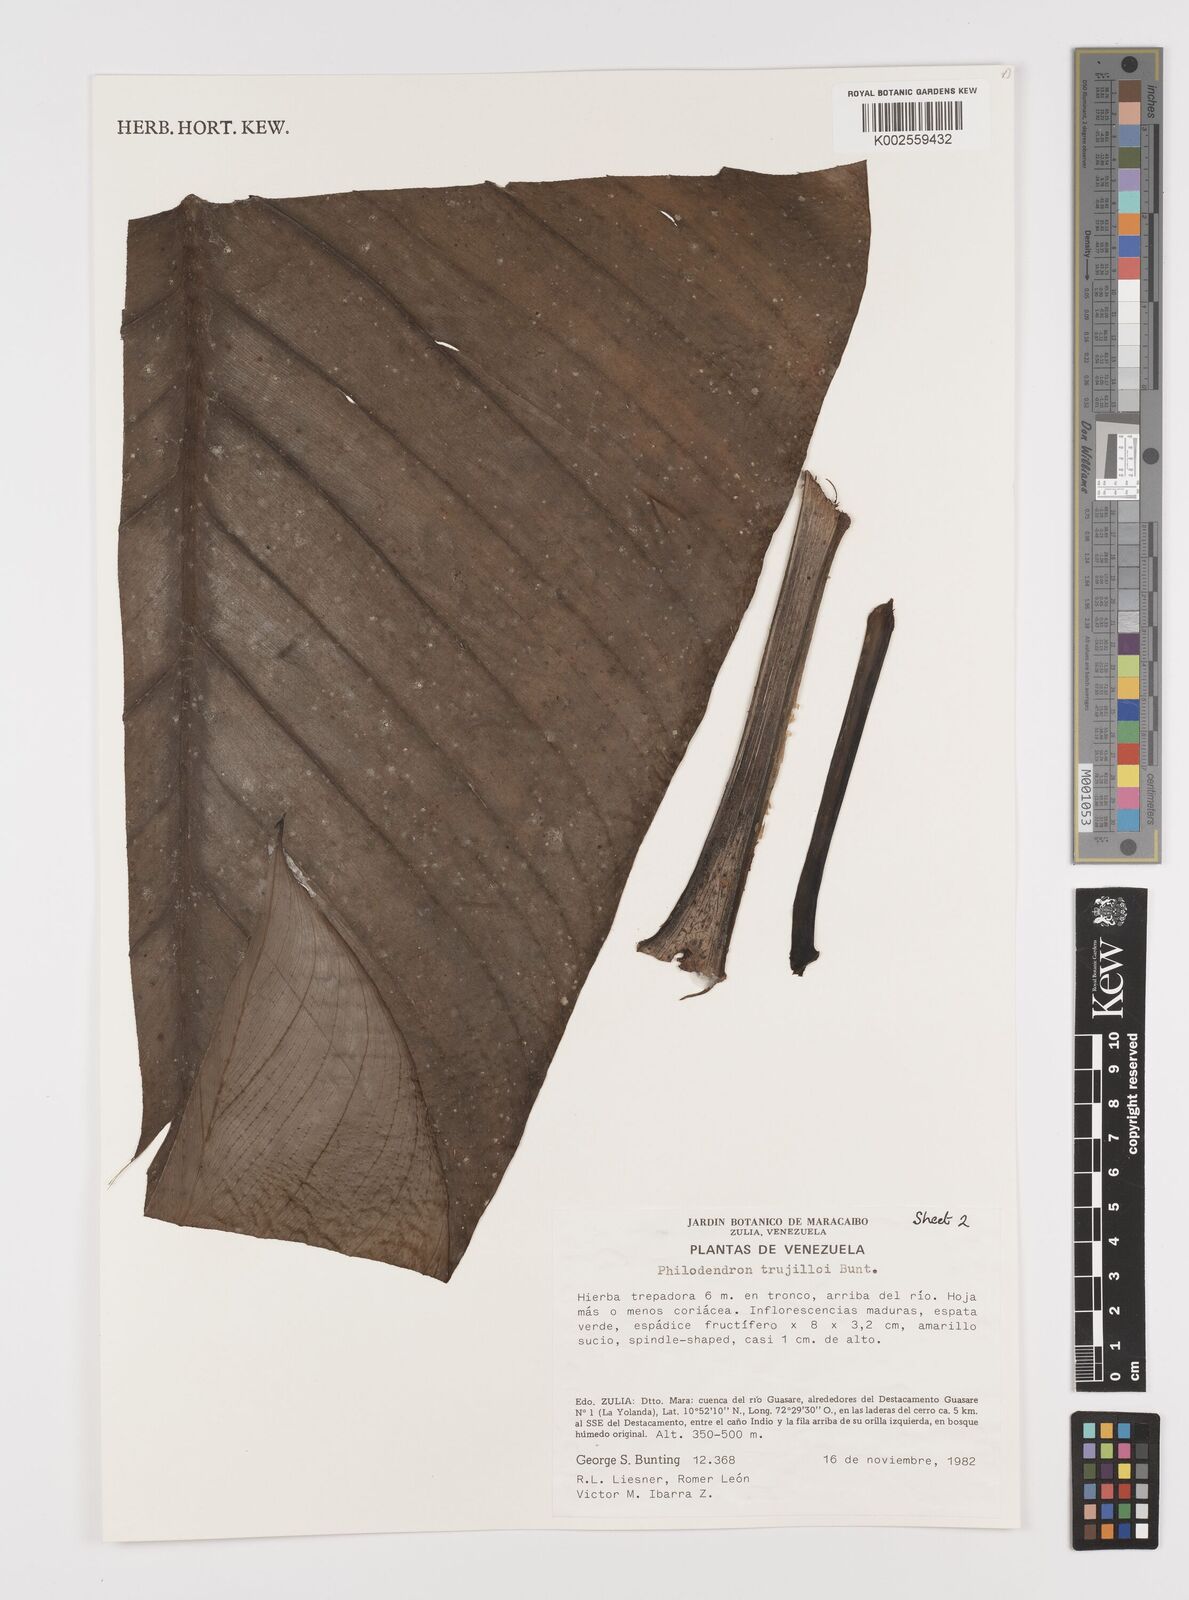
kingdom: Plantae
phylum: Tracheophyta
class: Liliopsida
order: Alismatales
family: Araceae
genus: Philodendron
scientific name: Philodendron trujilloi
